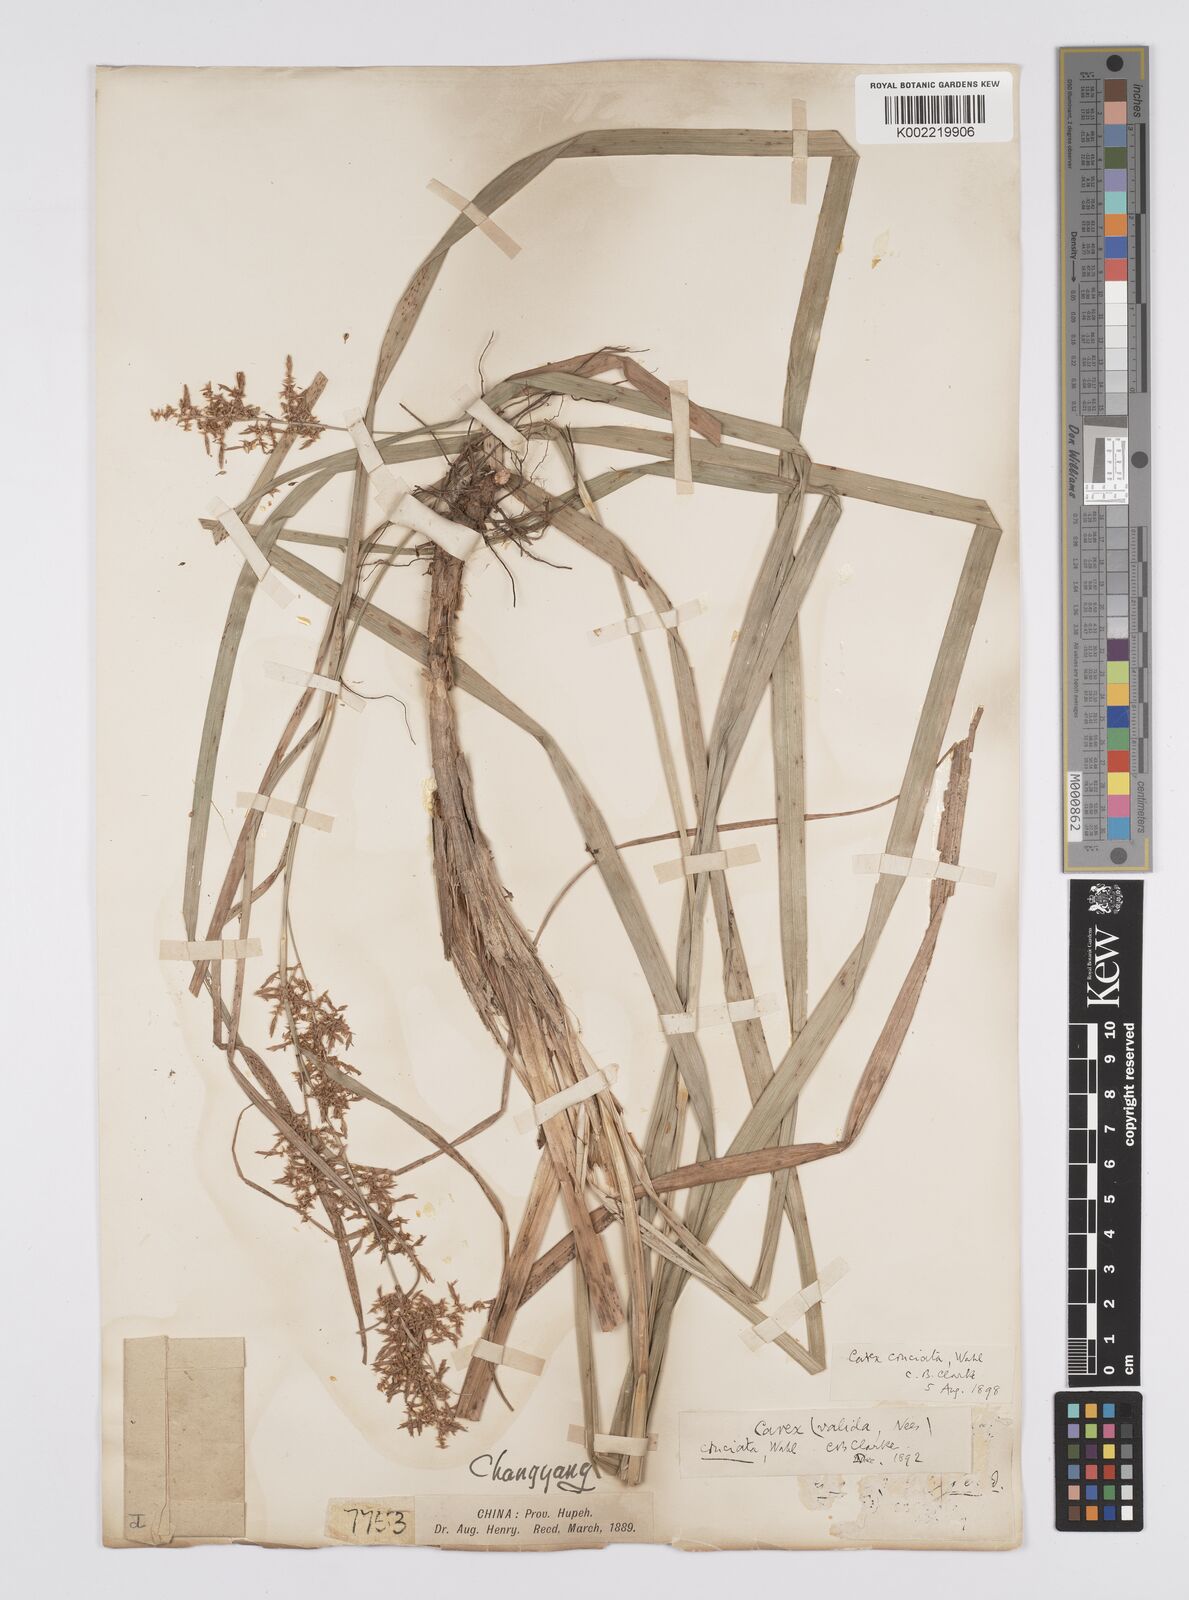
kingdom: Plantae
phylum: Tracheophyta
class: Liliopsida
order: Poales
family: Cyperaceae
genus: Carex
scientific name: Carex cruciata
